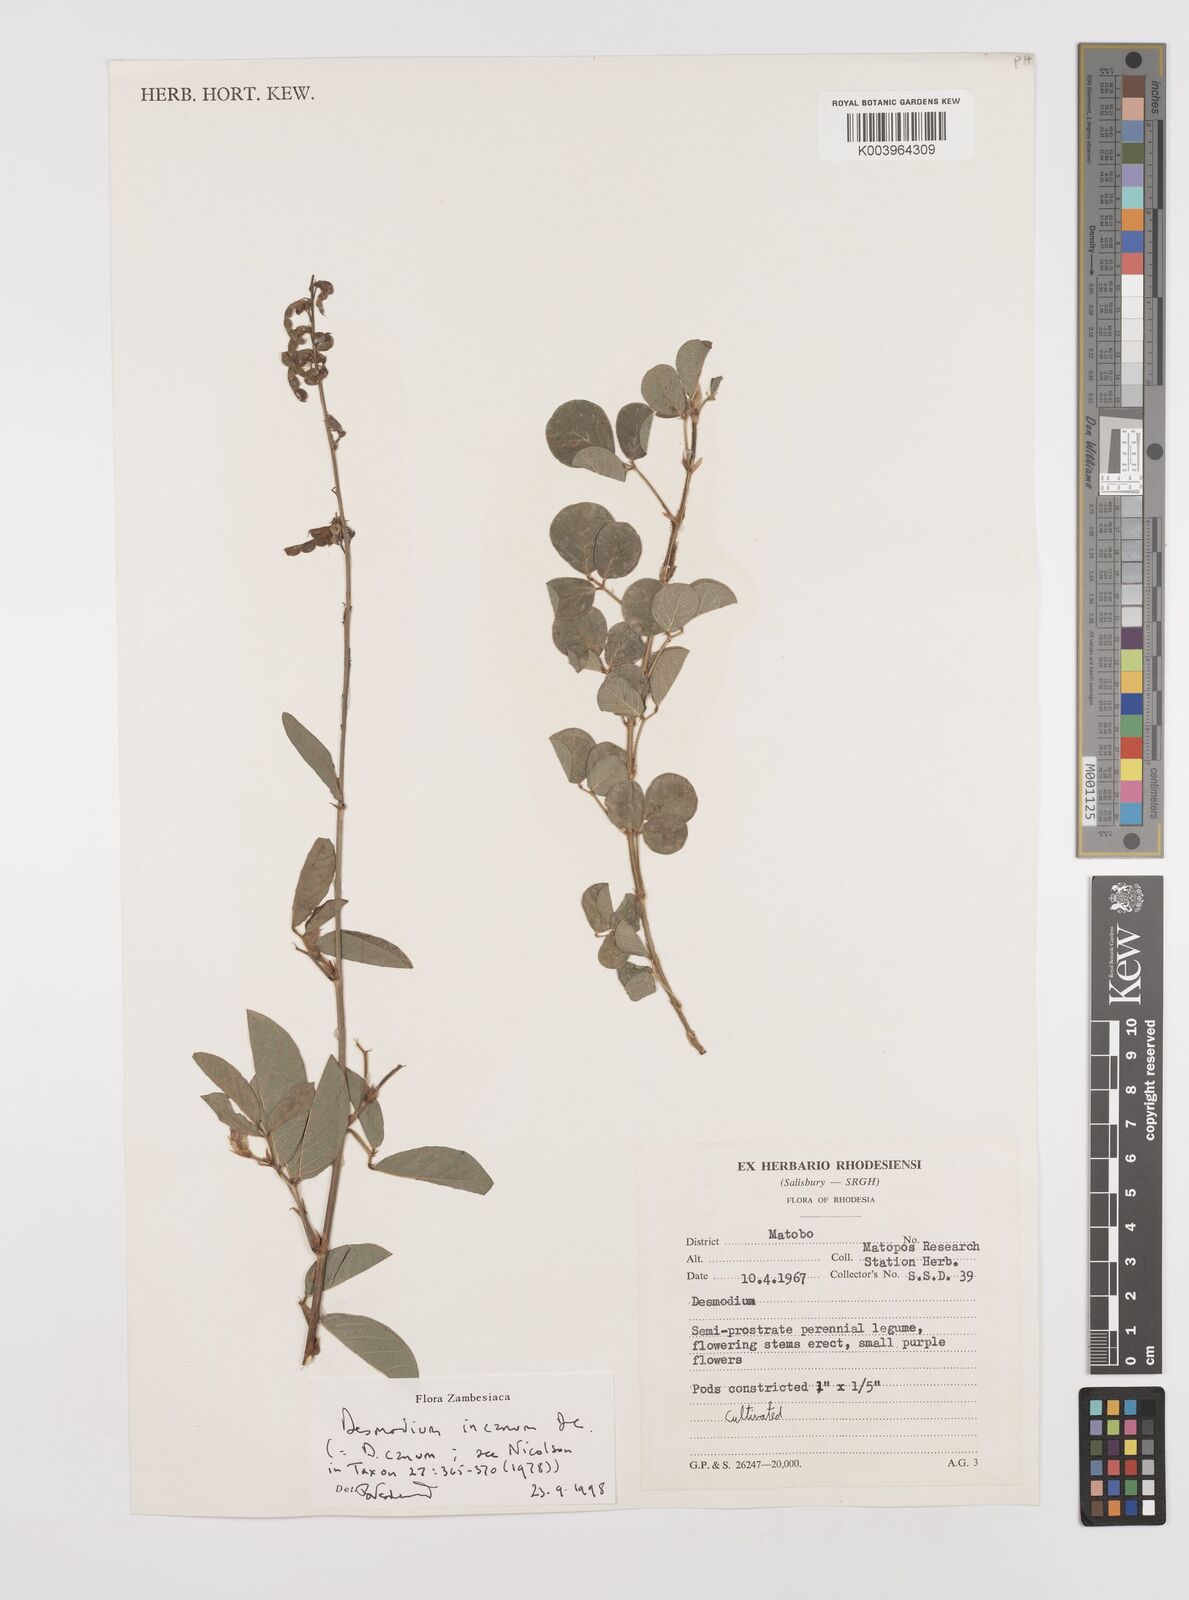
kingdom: Plantae
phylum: Tracheophyta
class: Magnoliopsida
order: Fabales
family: Fabaceae
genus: Desmodium
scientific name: Desmodium incanum
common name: Tickclover
